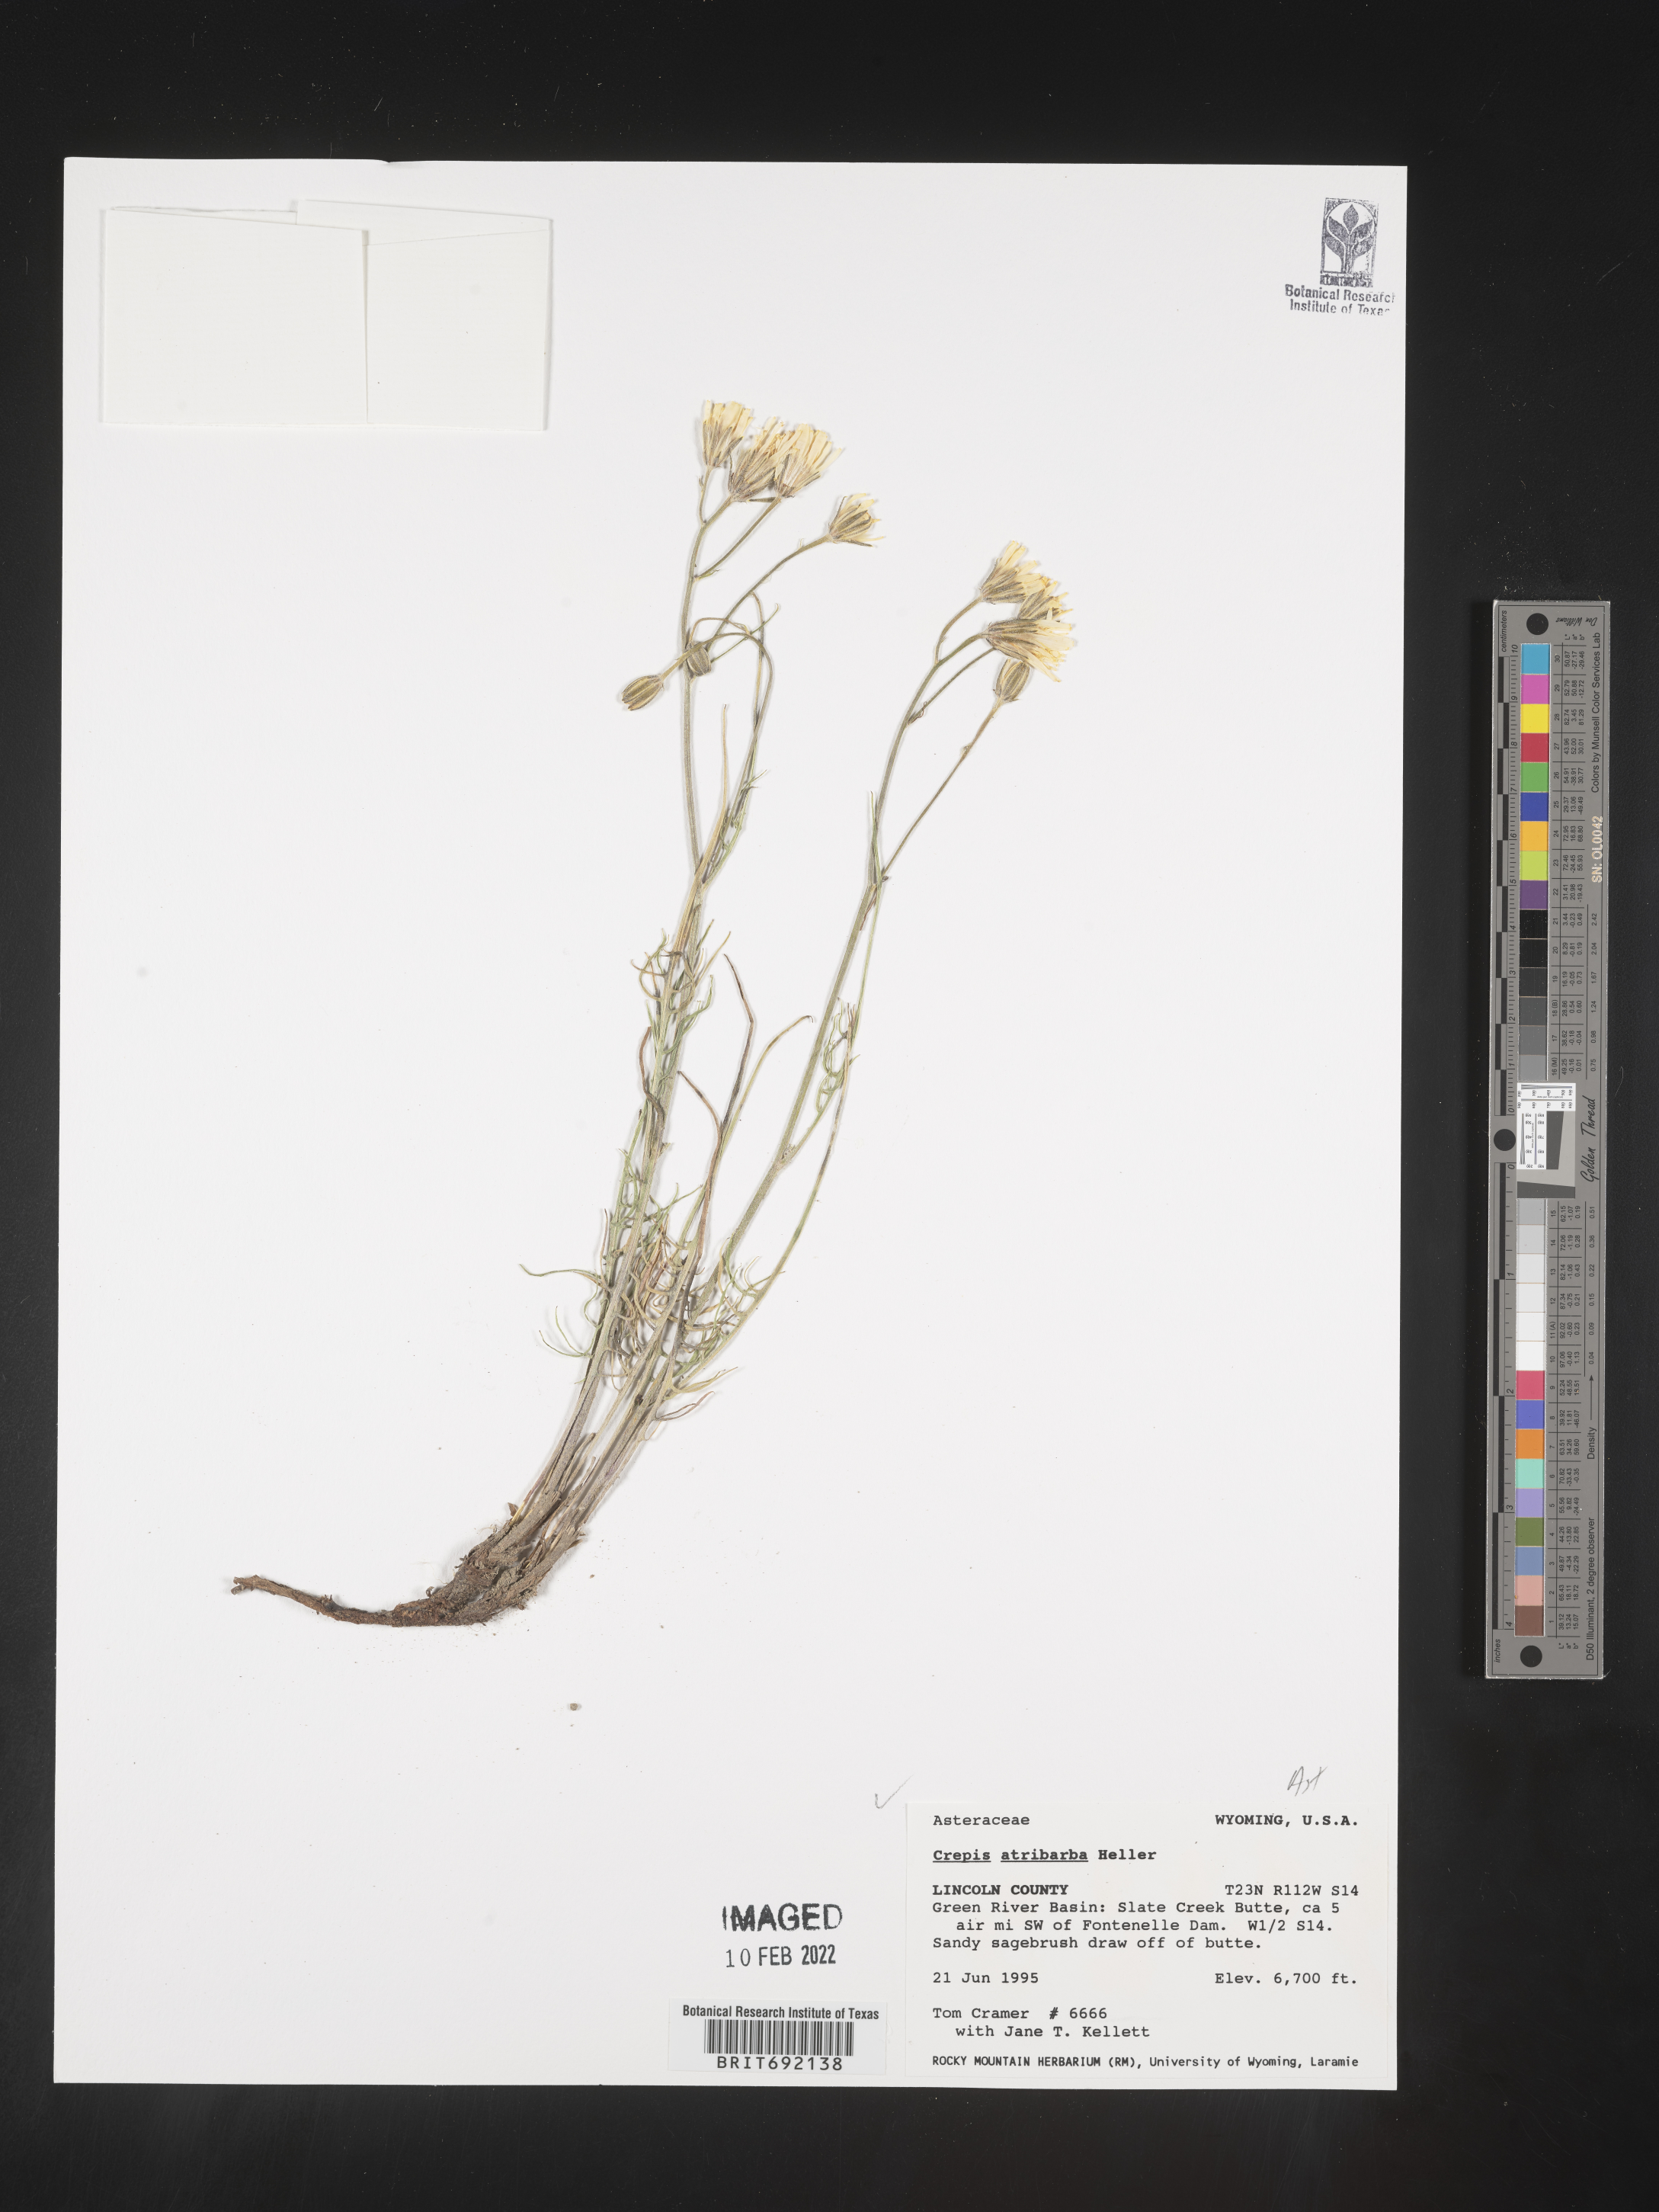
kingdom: Plantae
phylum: Tracheophyta
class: Magnoliopsida
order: Asterales
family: Asteraceae
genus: Crepis
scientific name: Crepis
